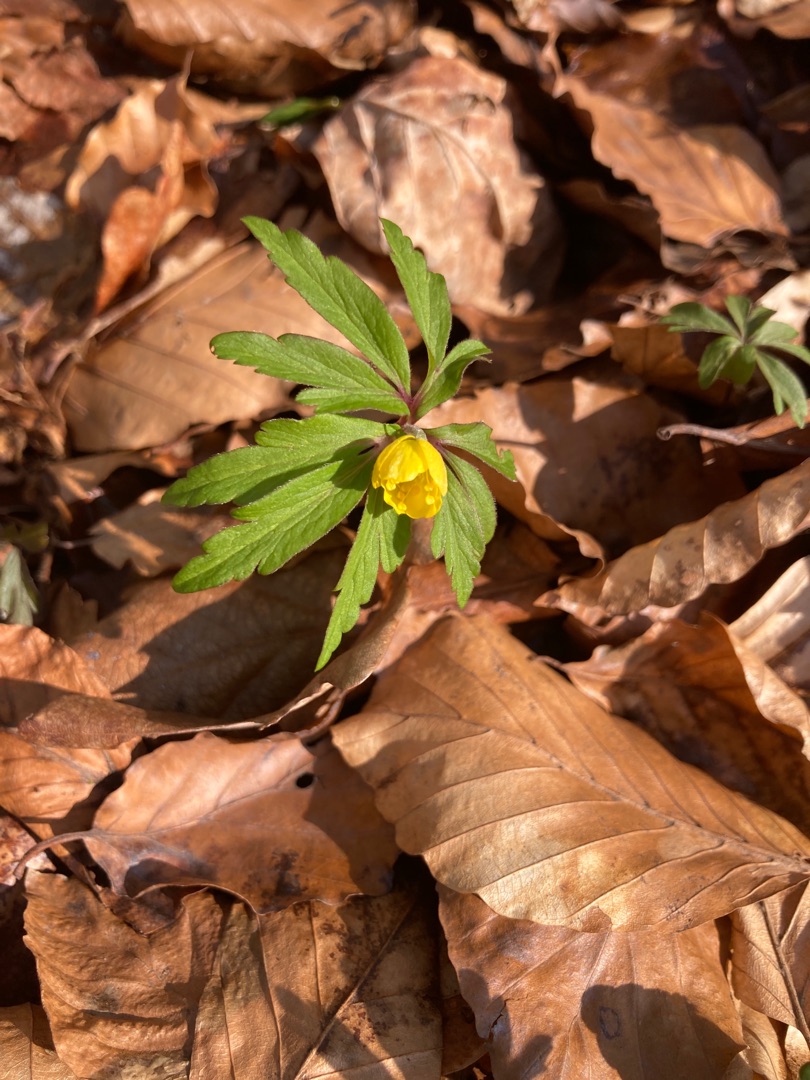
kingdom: Plantae
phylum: Tracheophyta
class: Magnoliopsida
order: Ranunculales
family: Ranunculaceae
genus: Anemone
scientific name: Anemone ranunculoides
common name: Gul anemone
